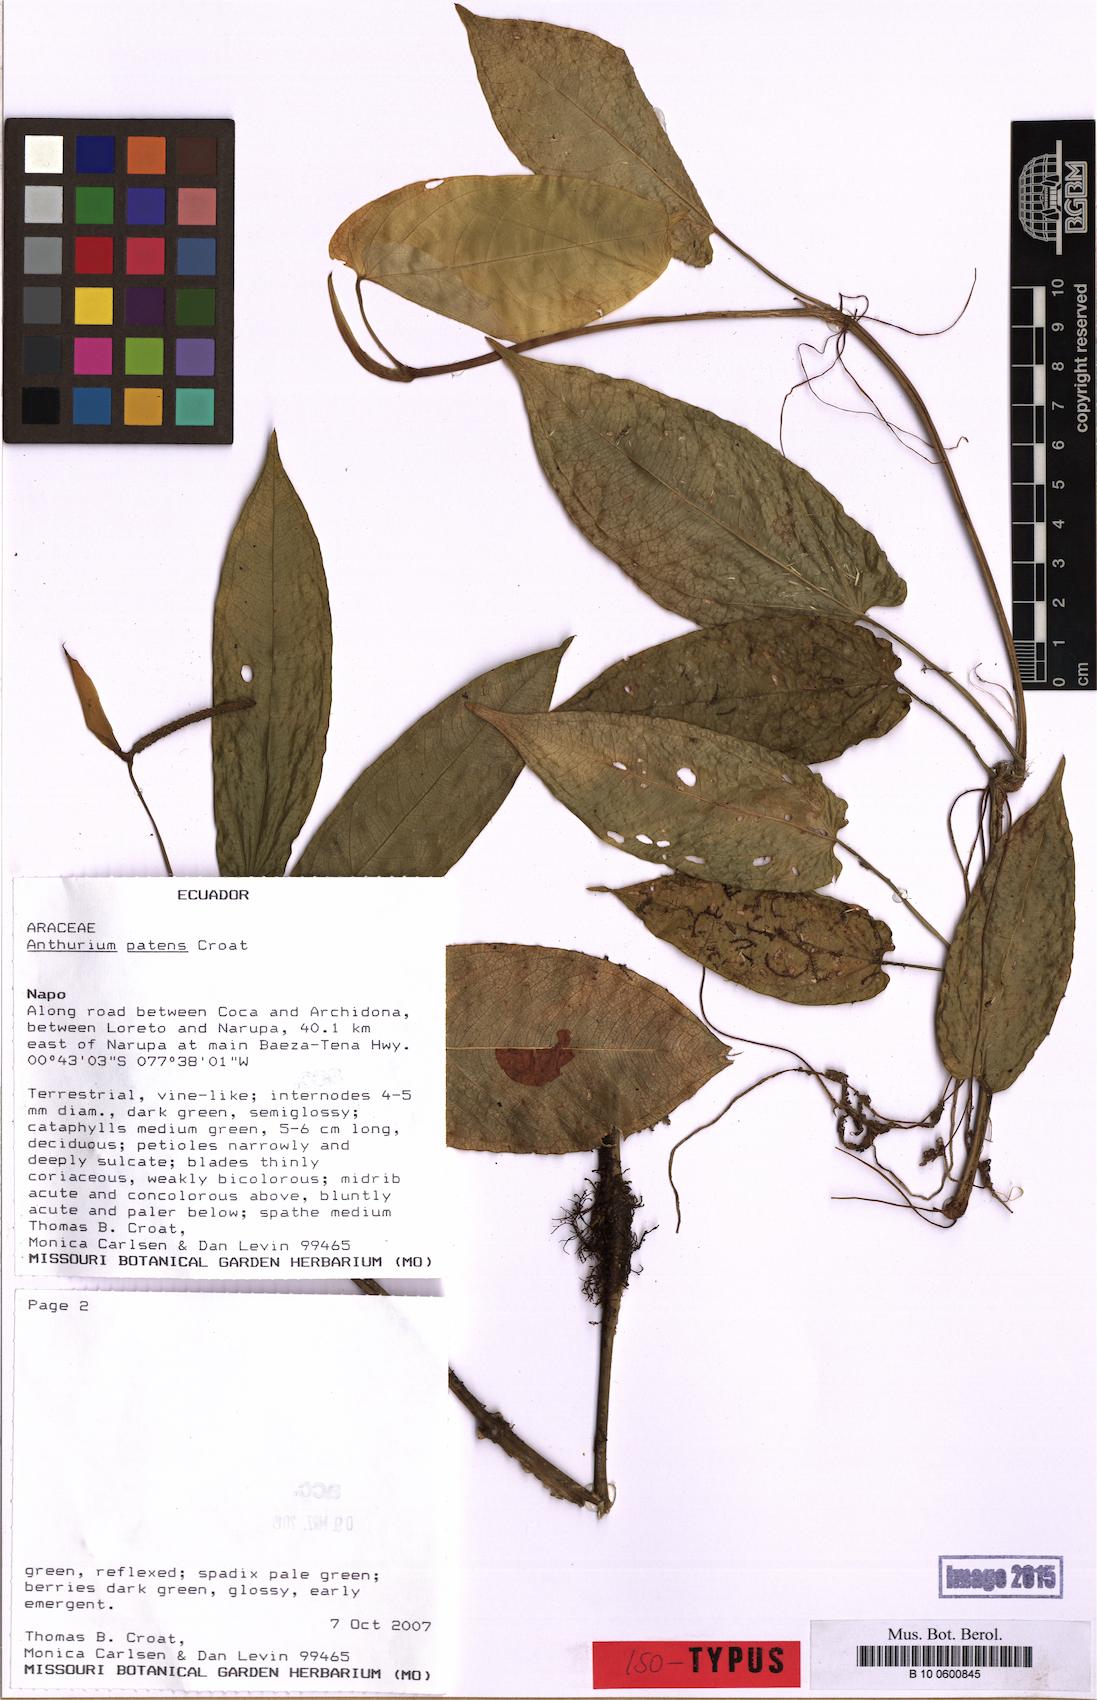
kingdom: Plantae
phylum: Tracheophyta
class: Liliopsida
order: Alismatales
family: Araceae
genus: Anthurium
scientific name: Anthurium patens
